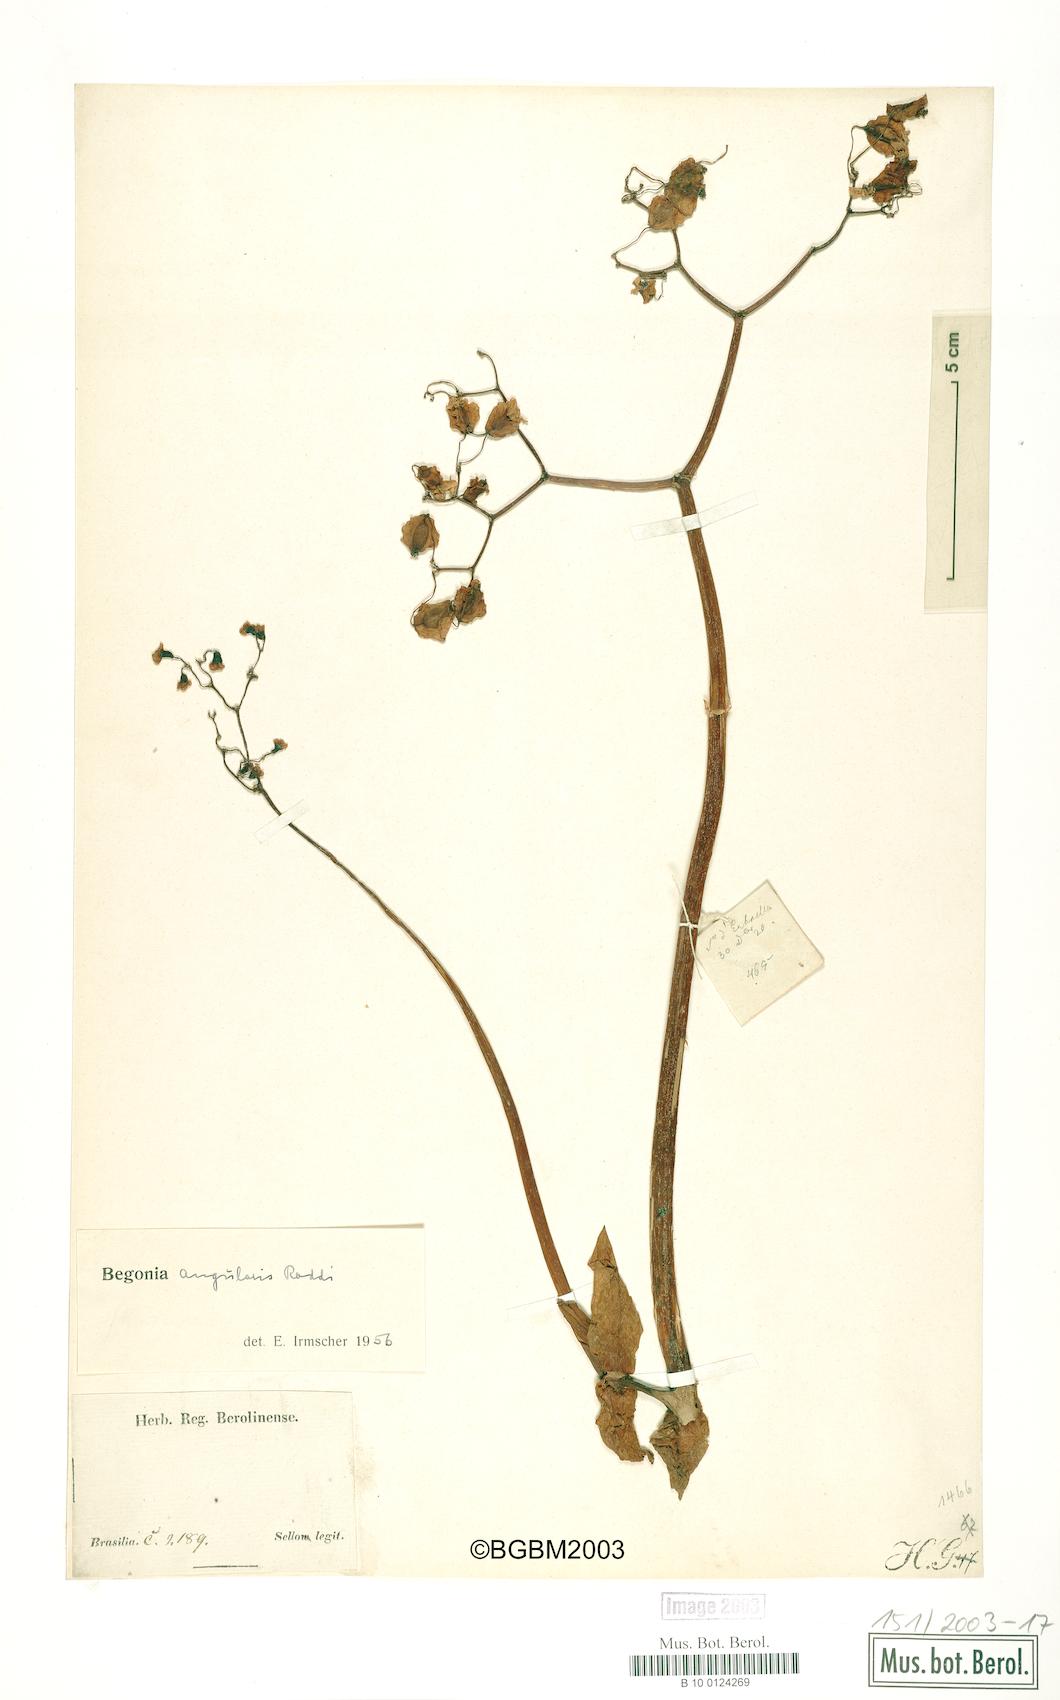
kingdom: Plantae
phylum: Tracheophyta
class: Magnoliopsida
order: Cucurbitales
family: Begoniaceae
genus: Begonia
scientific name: Begonia angularis
